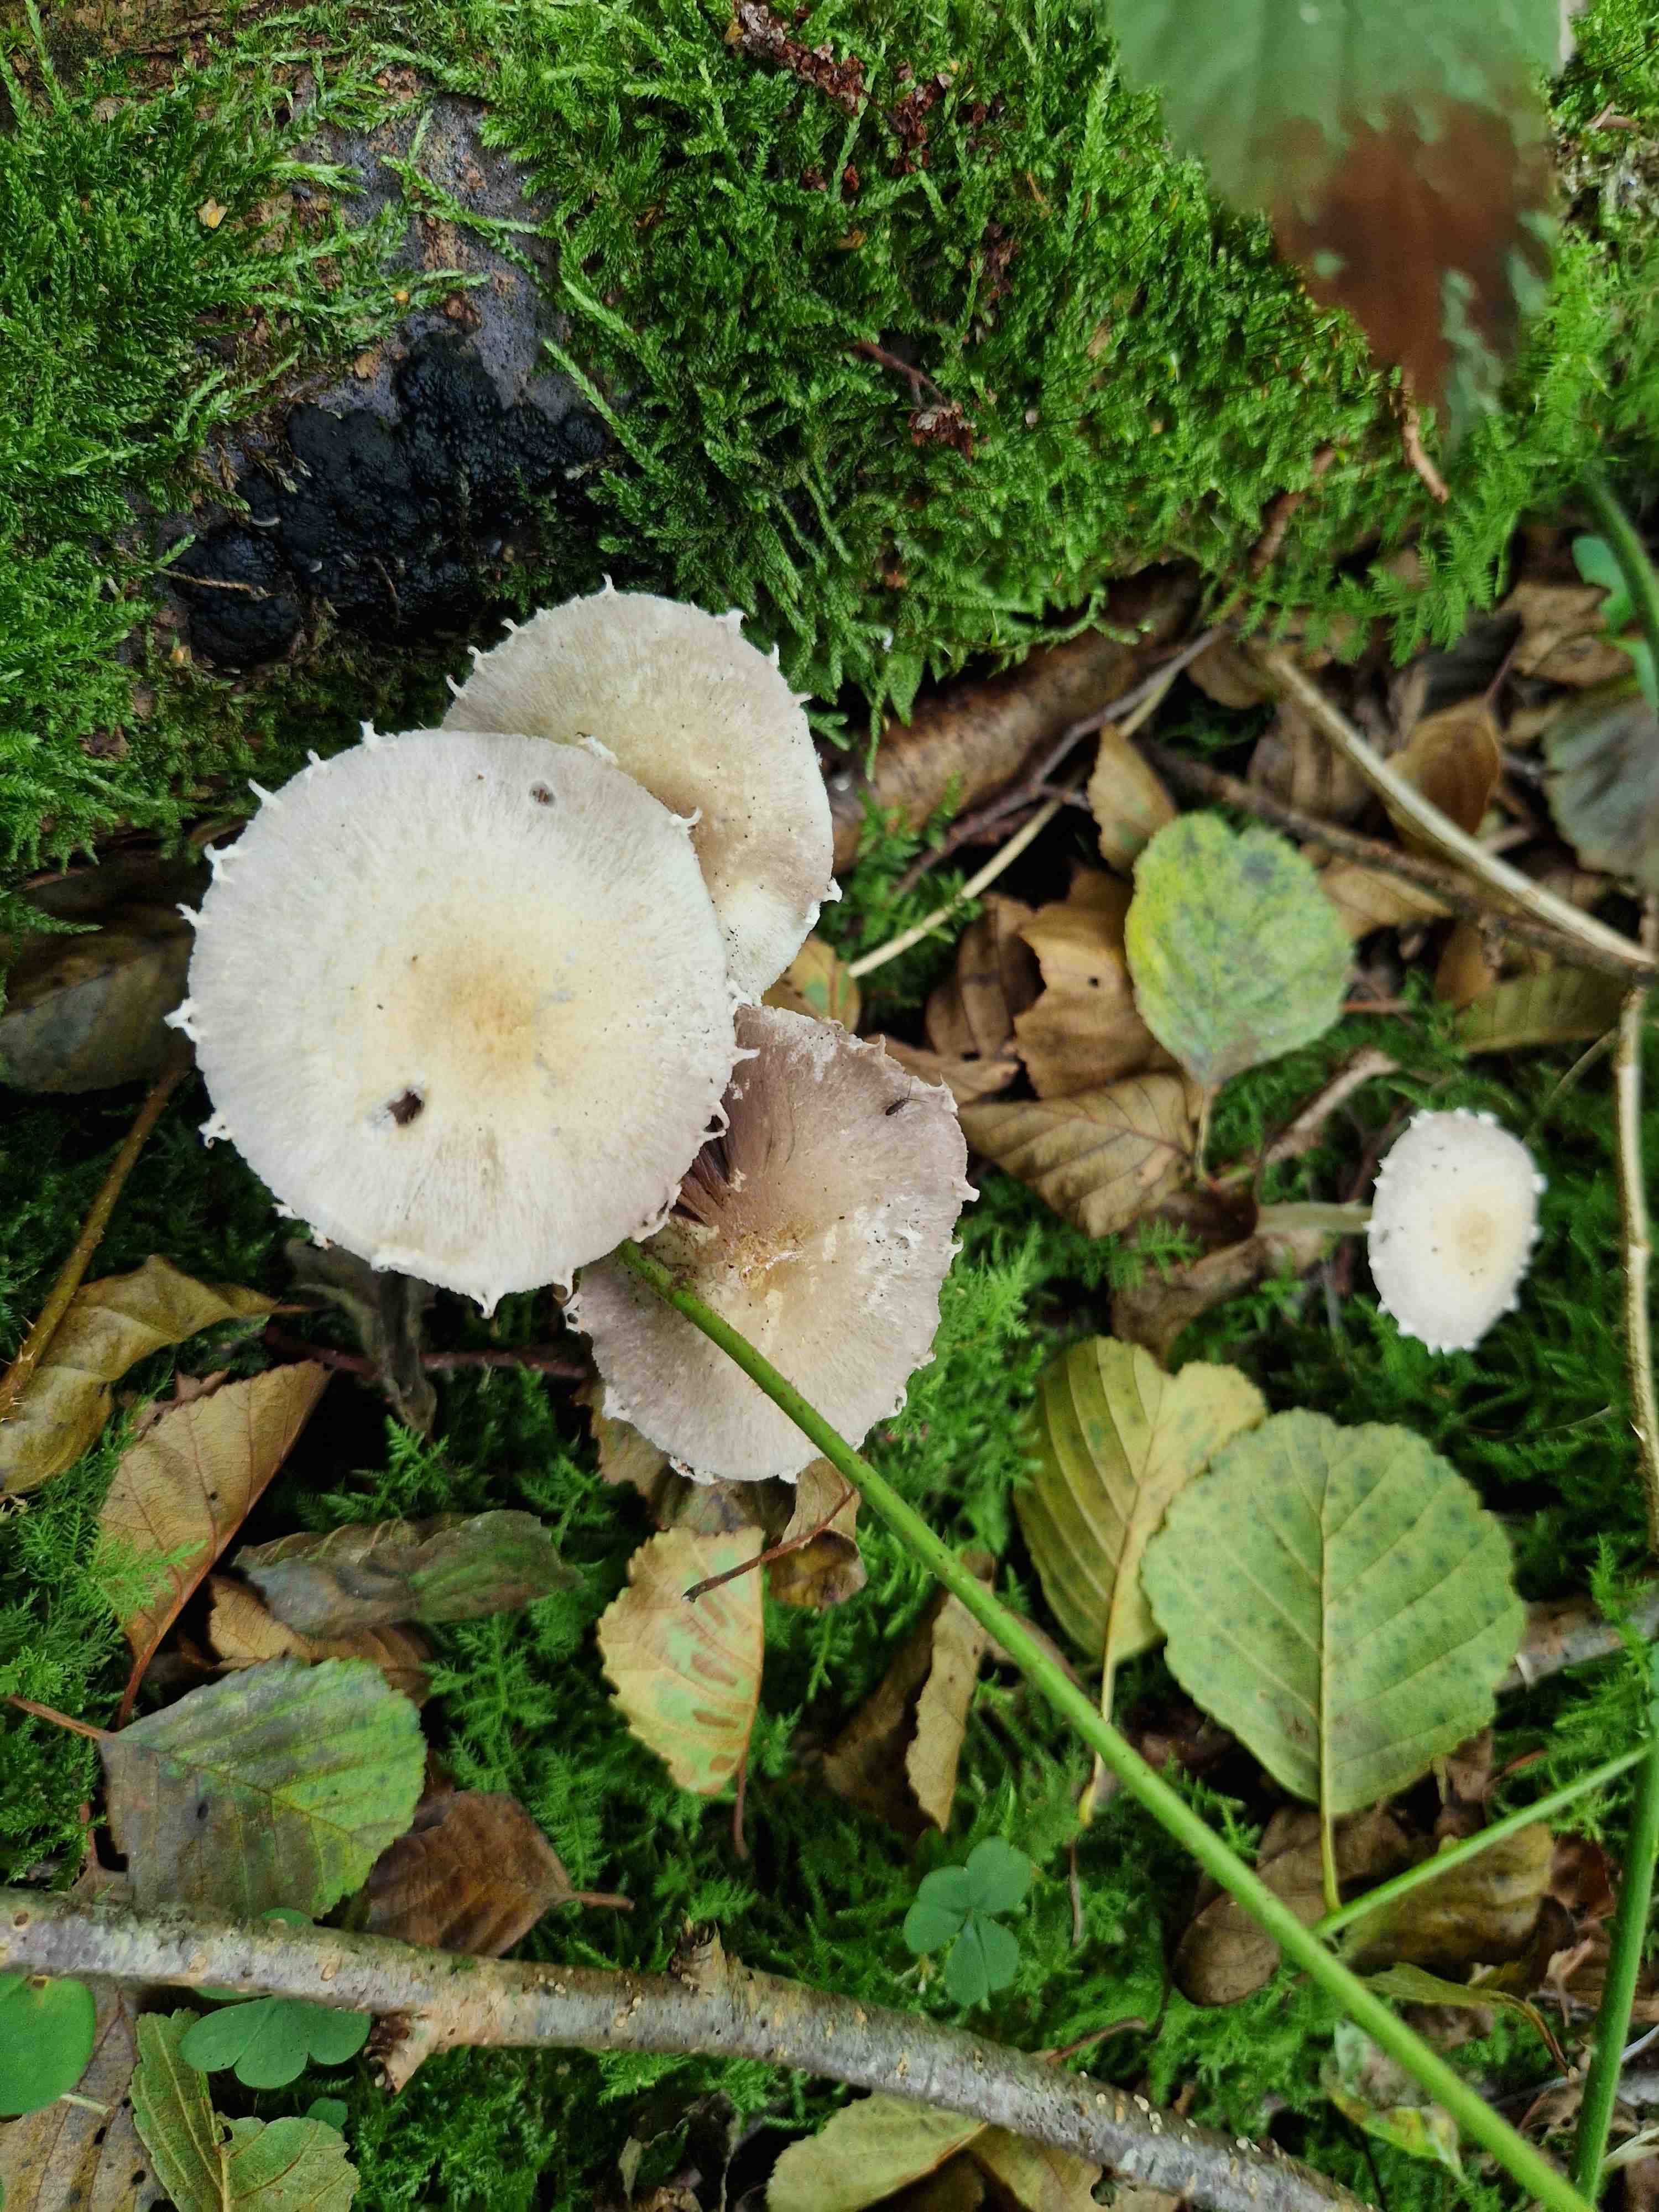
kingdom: Fungi
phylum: Basidiomycota
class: Agaricomycetes
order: Agaricales
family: Psathyrellaceae
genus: Candolleomyces
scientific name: Candolleomyces candolleanus
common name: Candolles mørkhat
